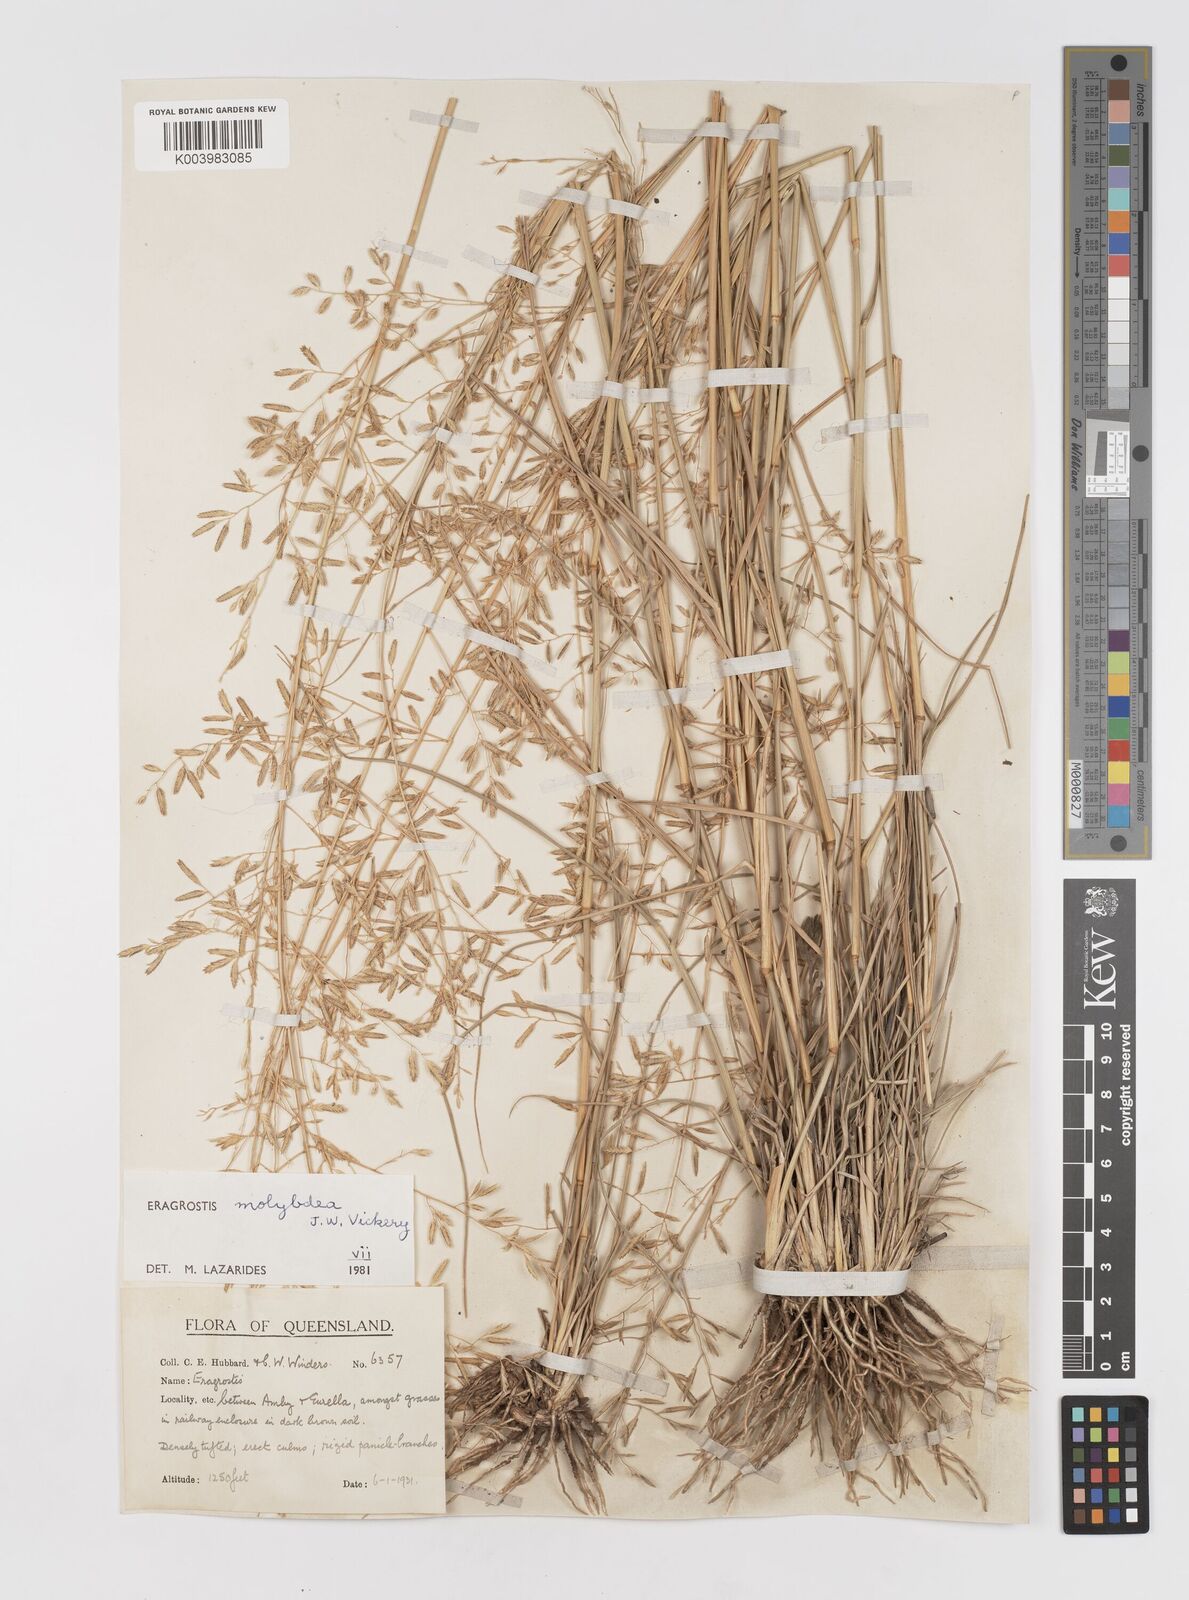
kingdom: Plantae
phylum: Tracheophyta
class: Liliopsida
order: Poales
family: Poaceae
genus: Eragrostis
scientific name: Eragrostis leptostachya
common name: Australian lovegrass
